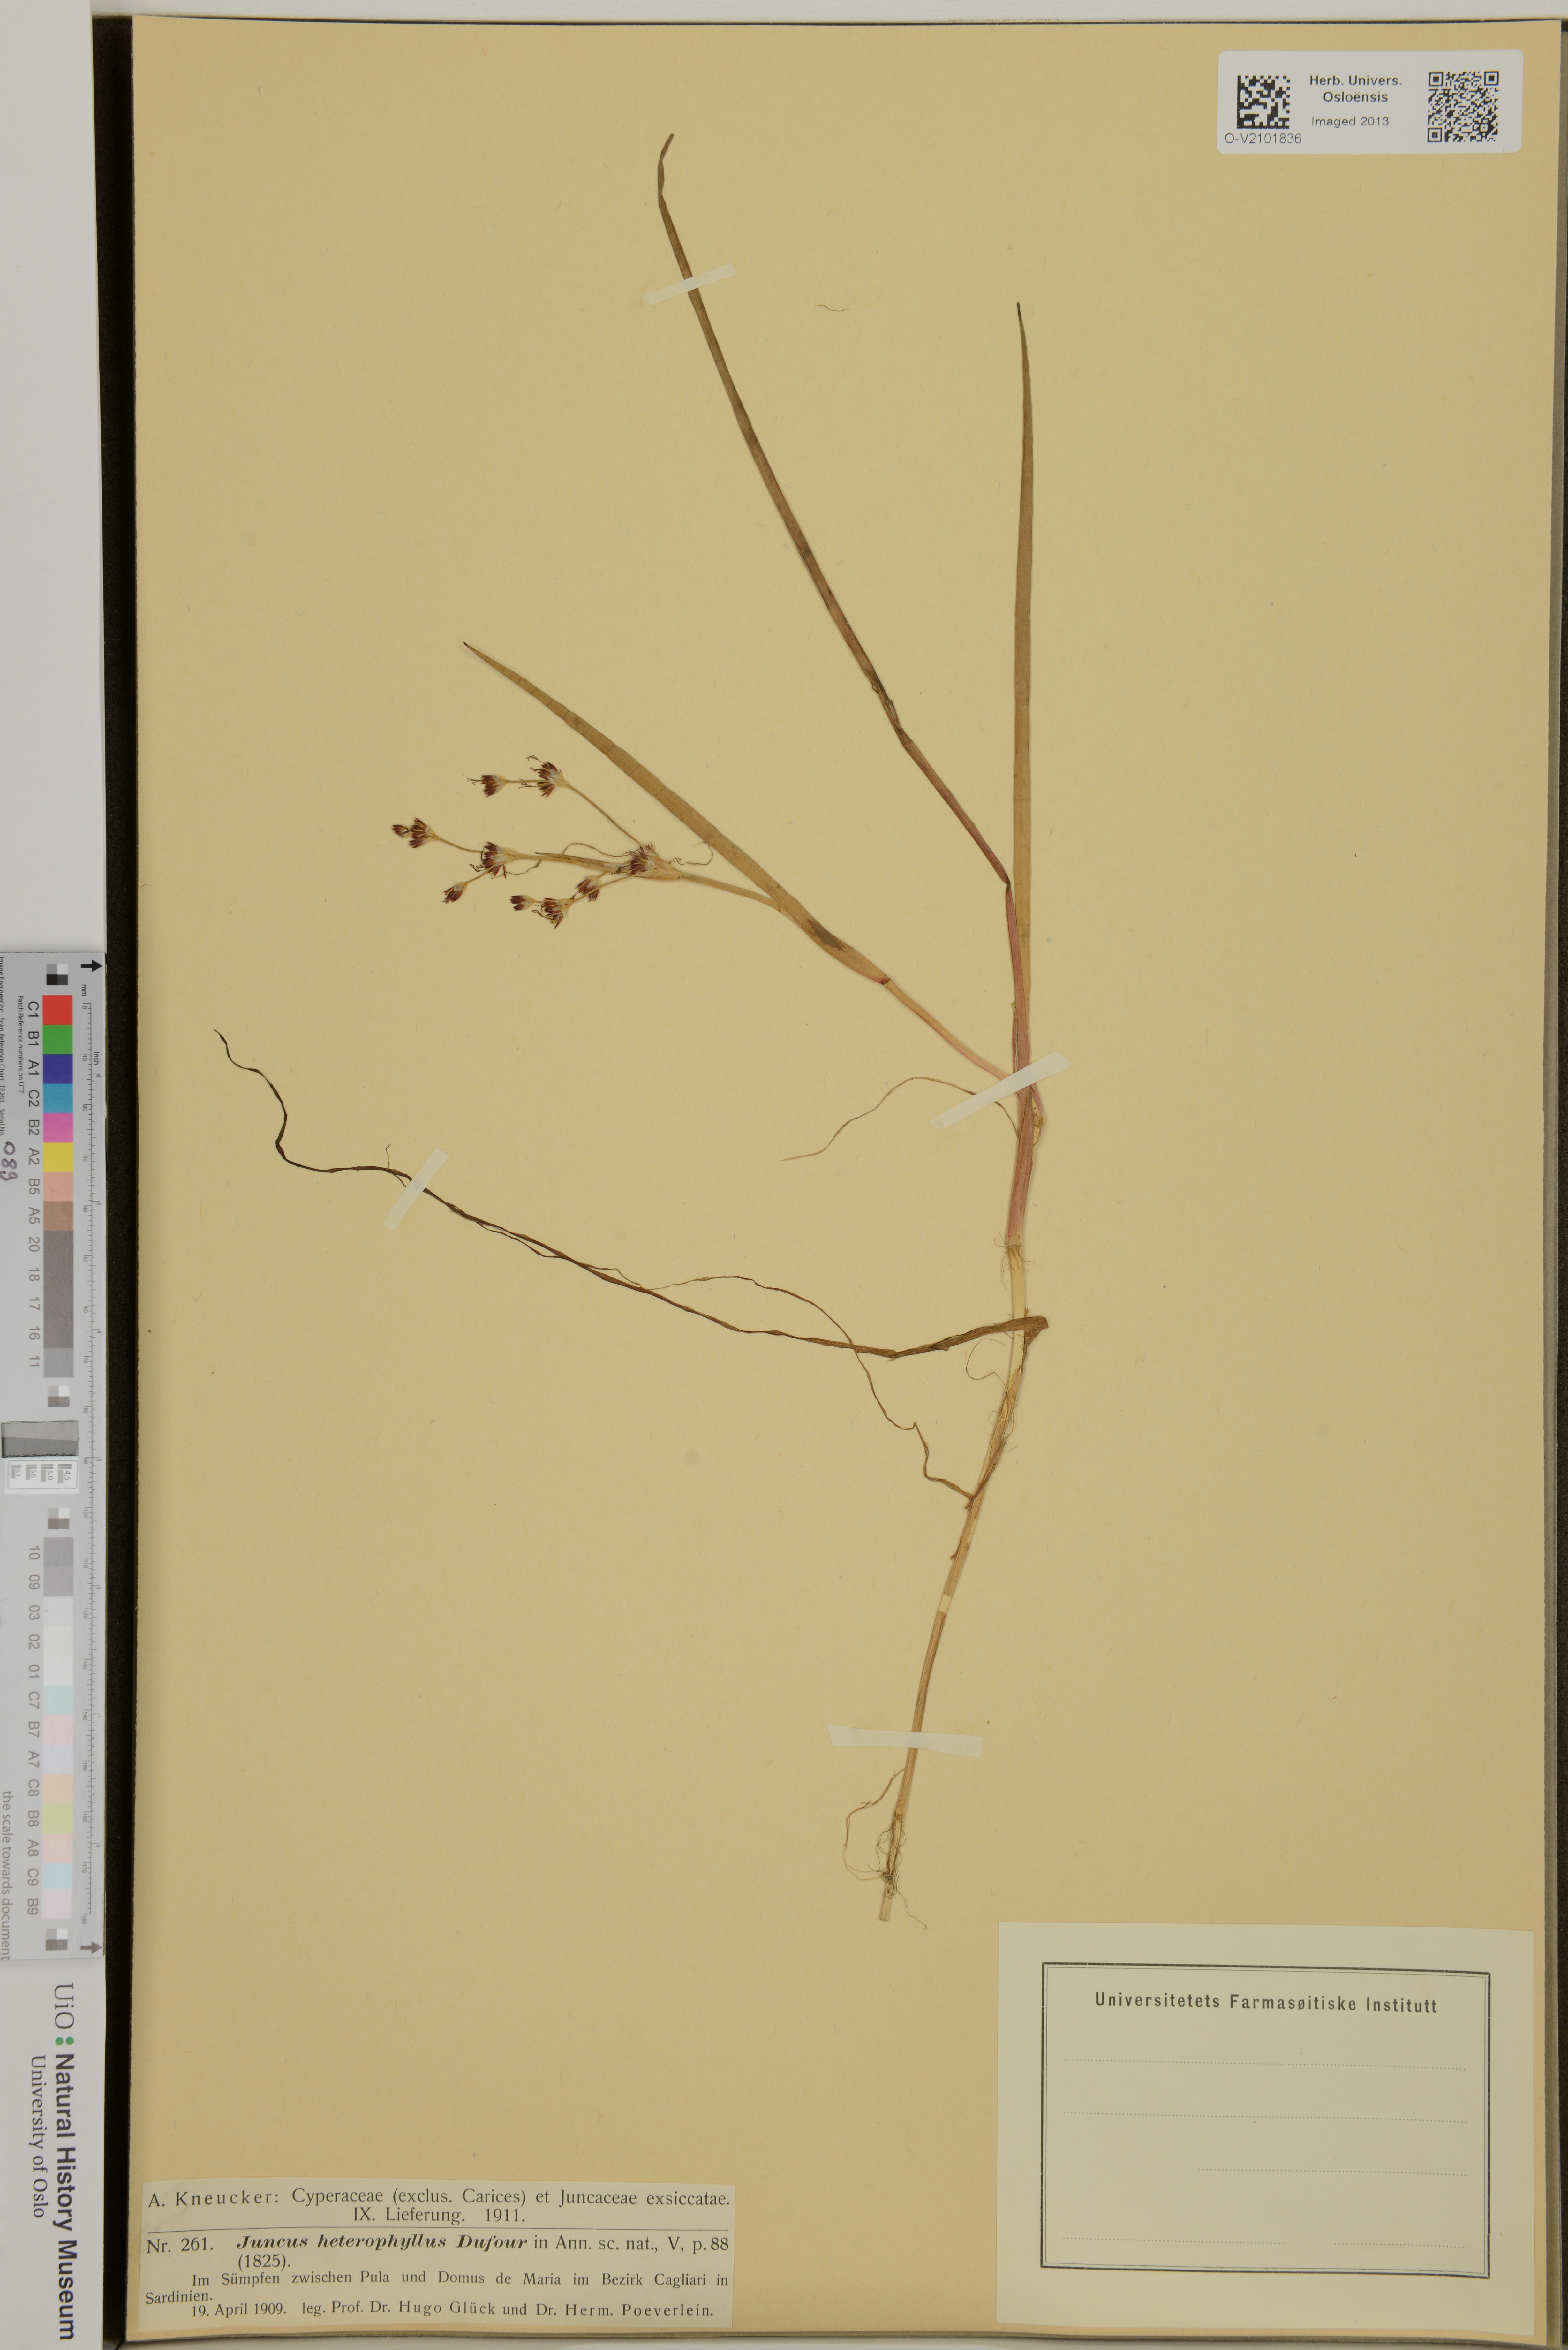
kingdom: Plantae
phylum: Tracheophyta
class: Liliopsida
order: Poales
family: Juncaceae
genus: Juncus
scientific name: Juncus heterophyllus
